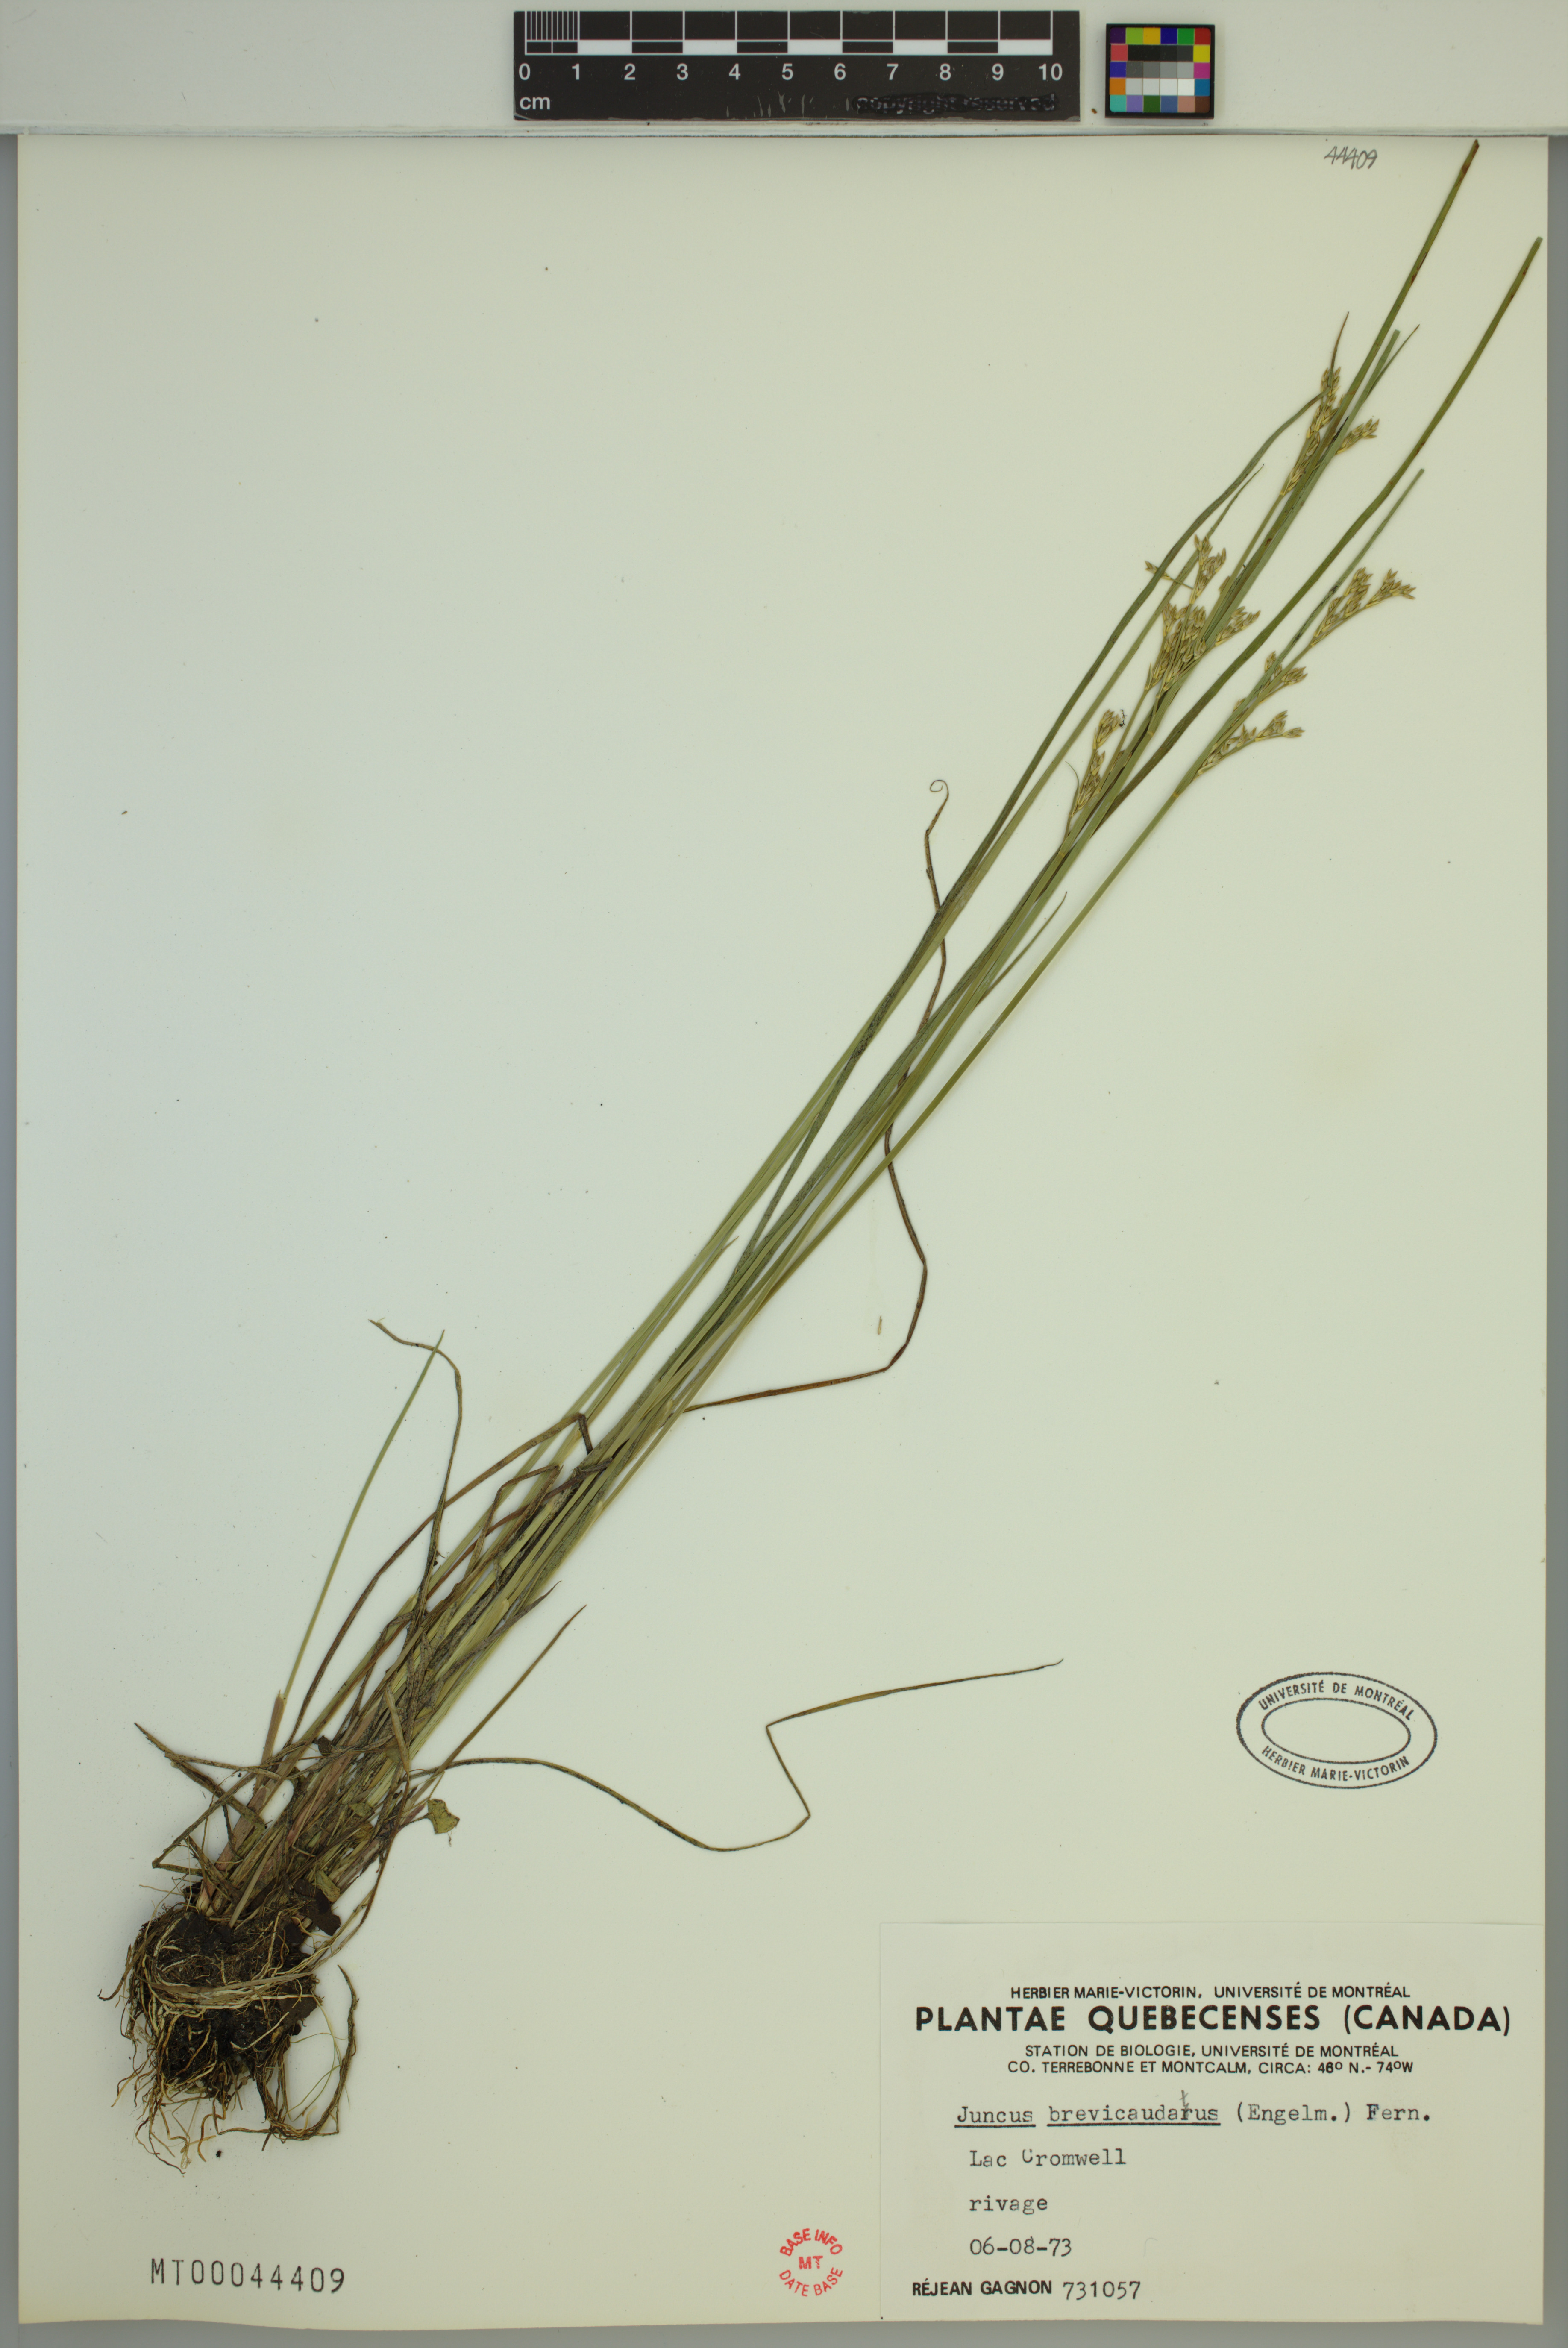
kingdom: Plantae
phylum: Tracheophyta
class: Liliopsida
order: Poales
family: Juncaceae
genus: Juncus
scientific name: Juncus brevicaudatus
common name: Narrow-panicle rush
